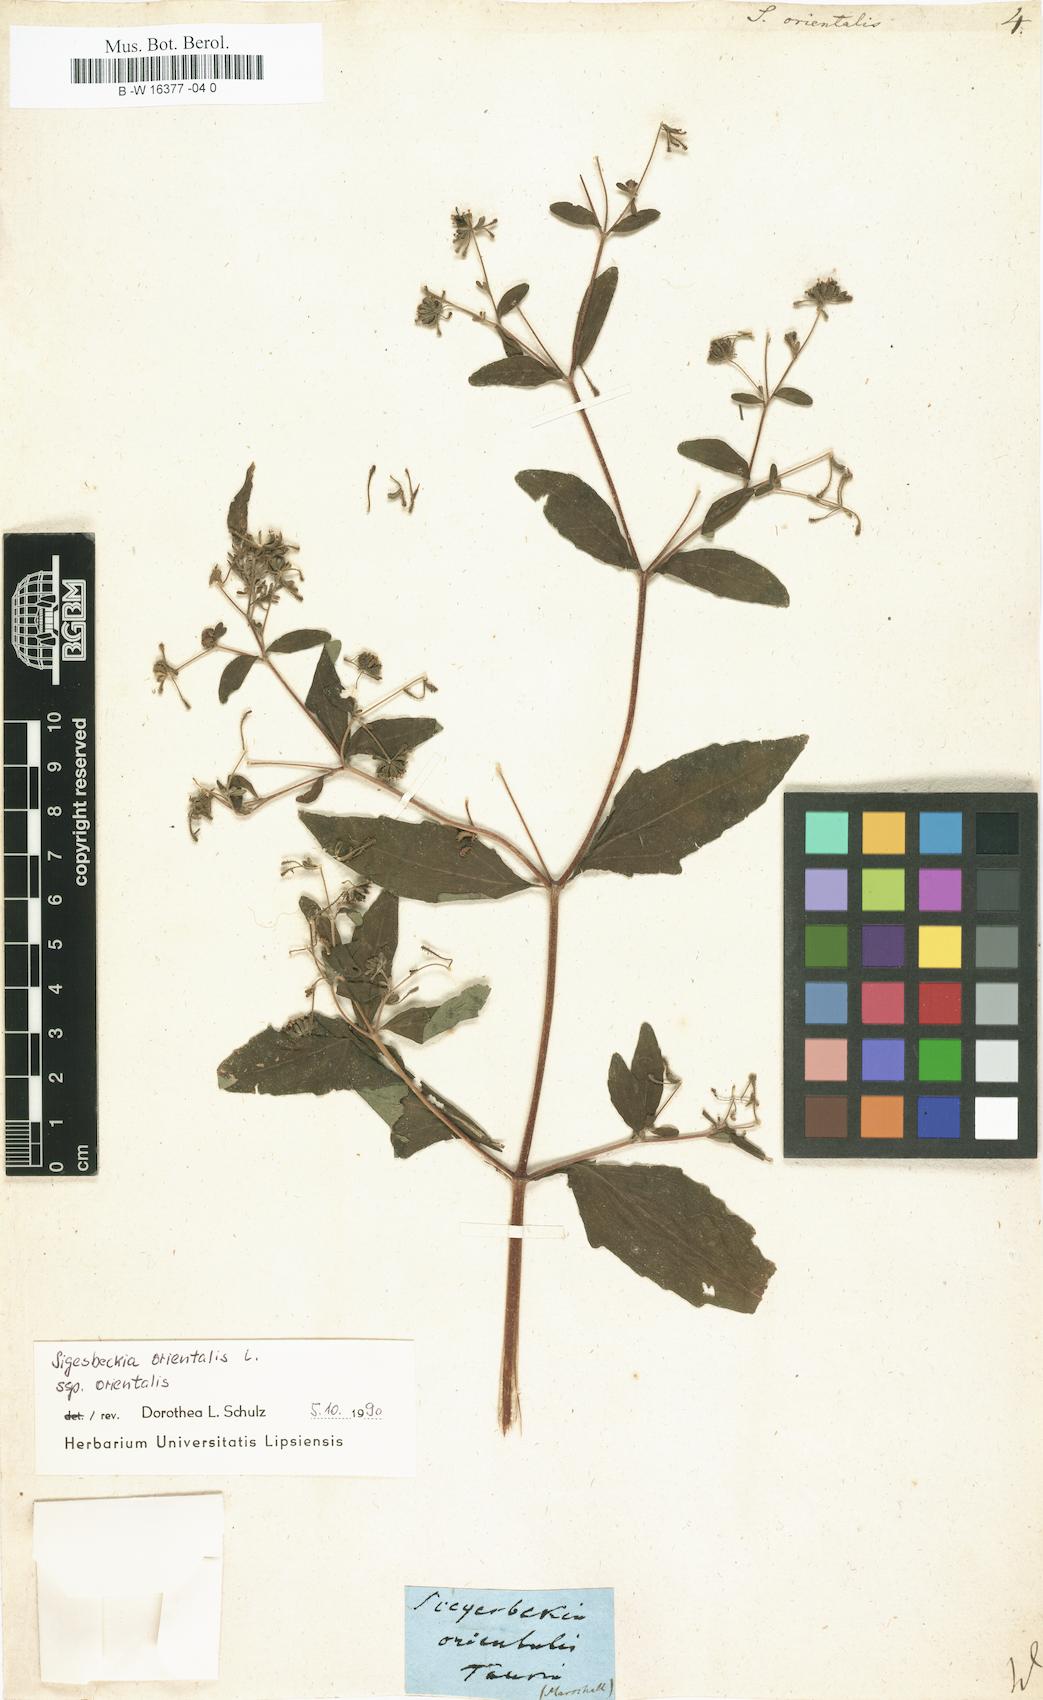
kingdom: Plantae
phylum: Tracheophyta
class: Magnoliopsida
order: Asterales
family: Asteraceae
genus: Sigesbeckia
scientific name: Sigesbeckia orientalis
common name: Eastern st paul's-wort
